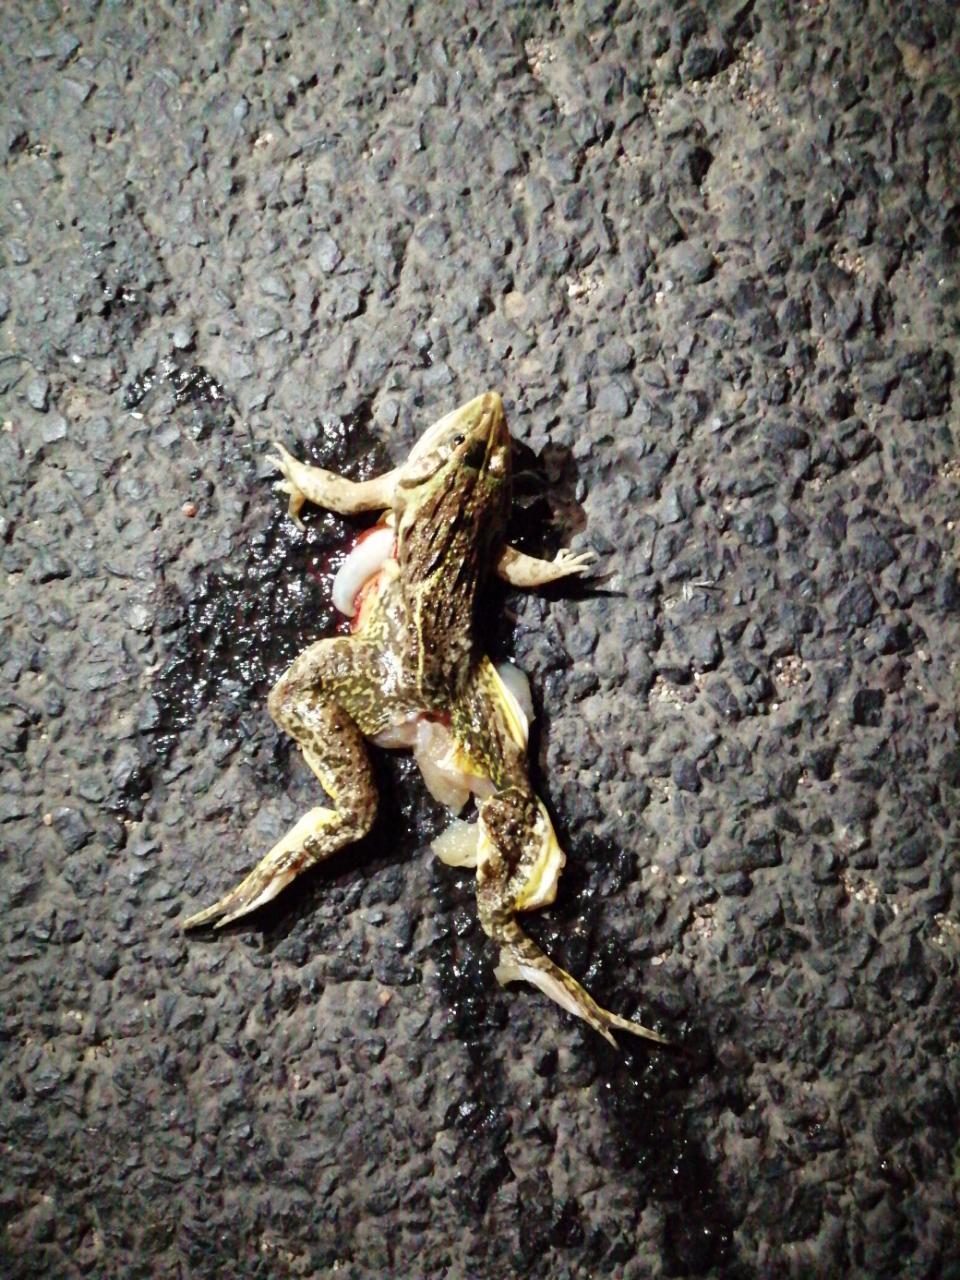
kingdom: Animalia
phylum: Chordata
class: Amphibia
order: Anura
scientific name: Anura
